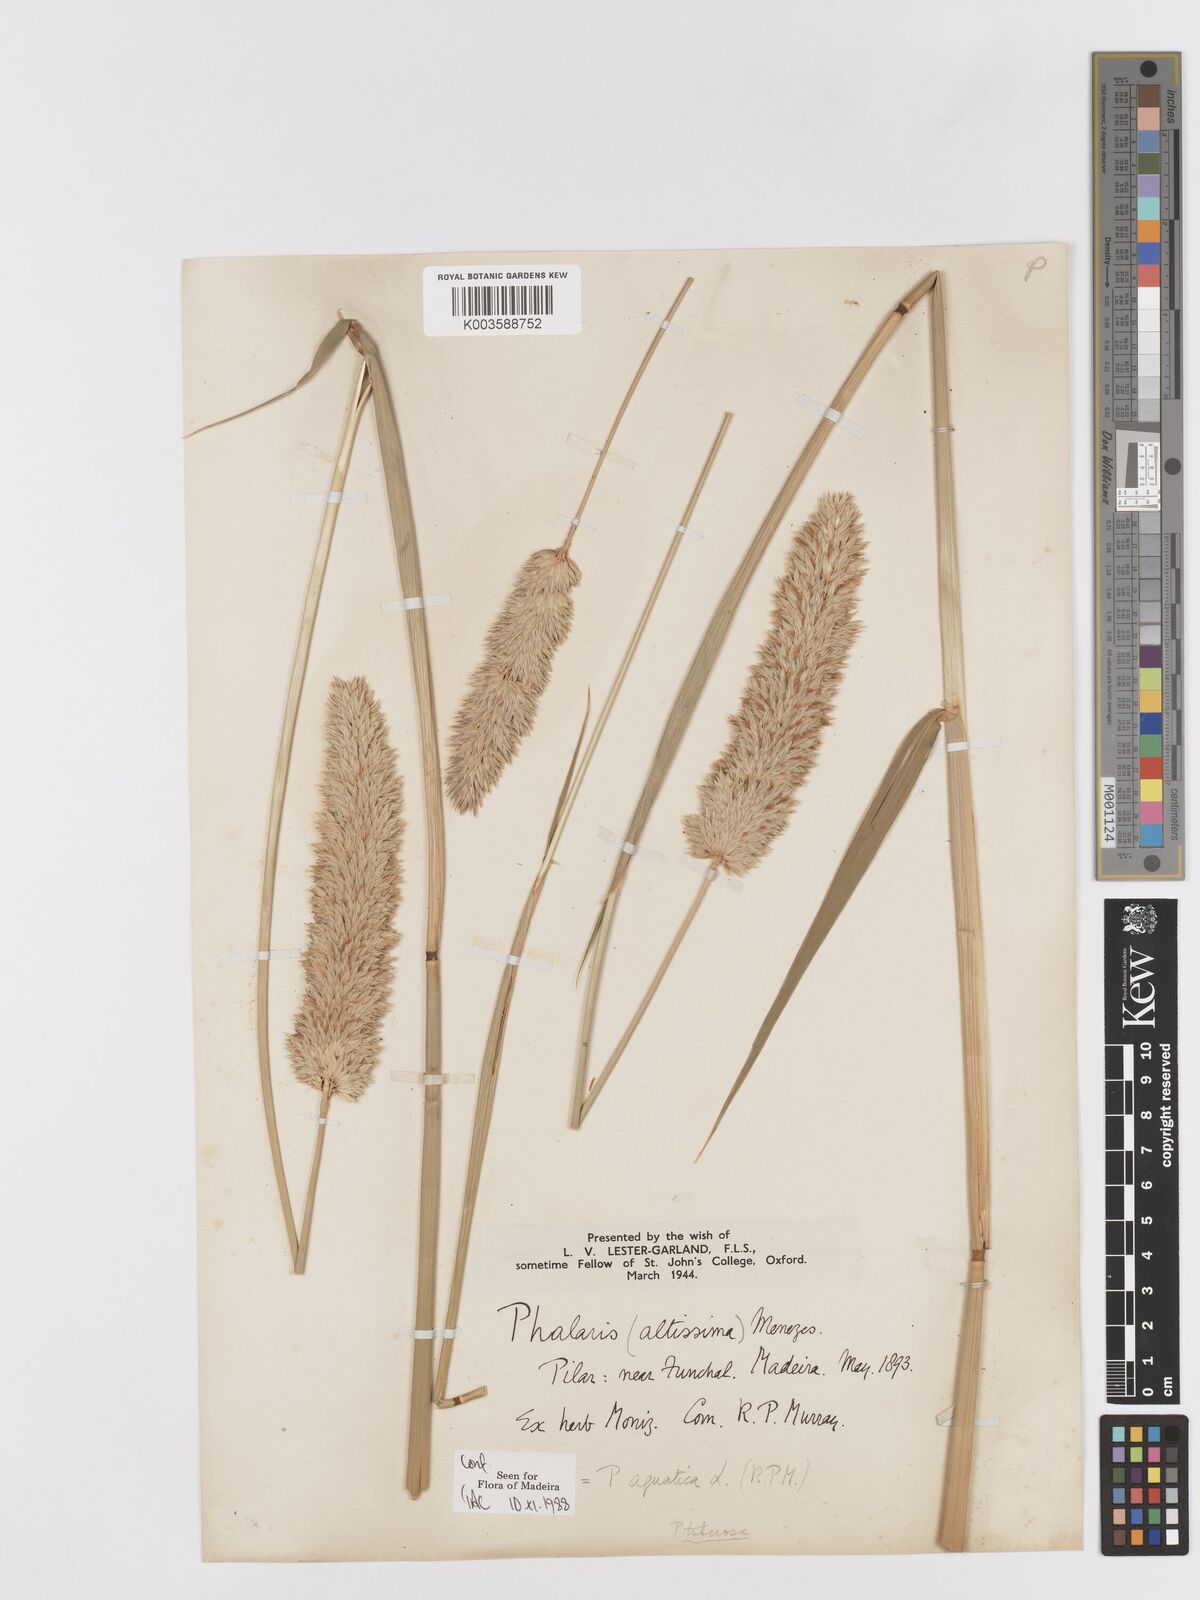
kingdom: Plantae
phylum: Tracheophyta
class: Liliopsida
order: Poales
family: Poaceae
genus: Phalaris
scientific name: Phalaris aquatica
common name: Bulbous canary-grass
